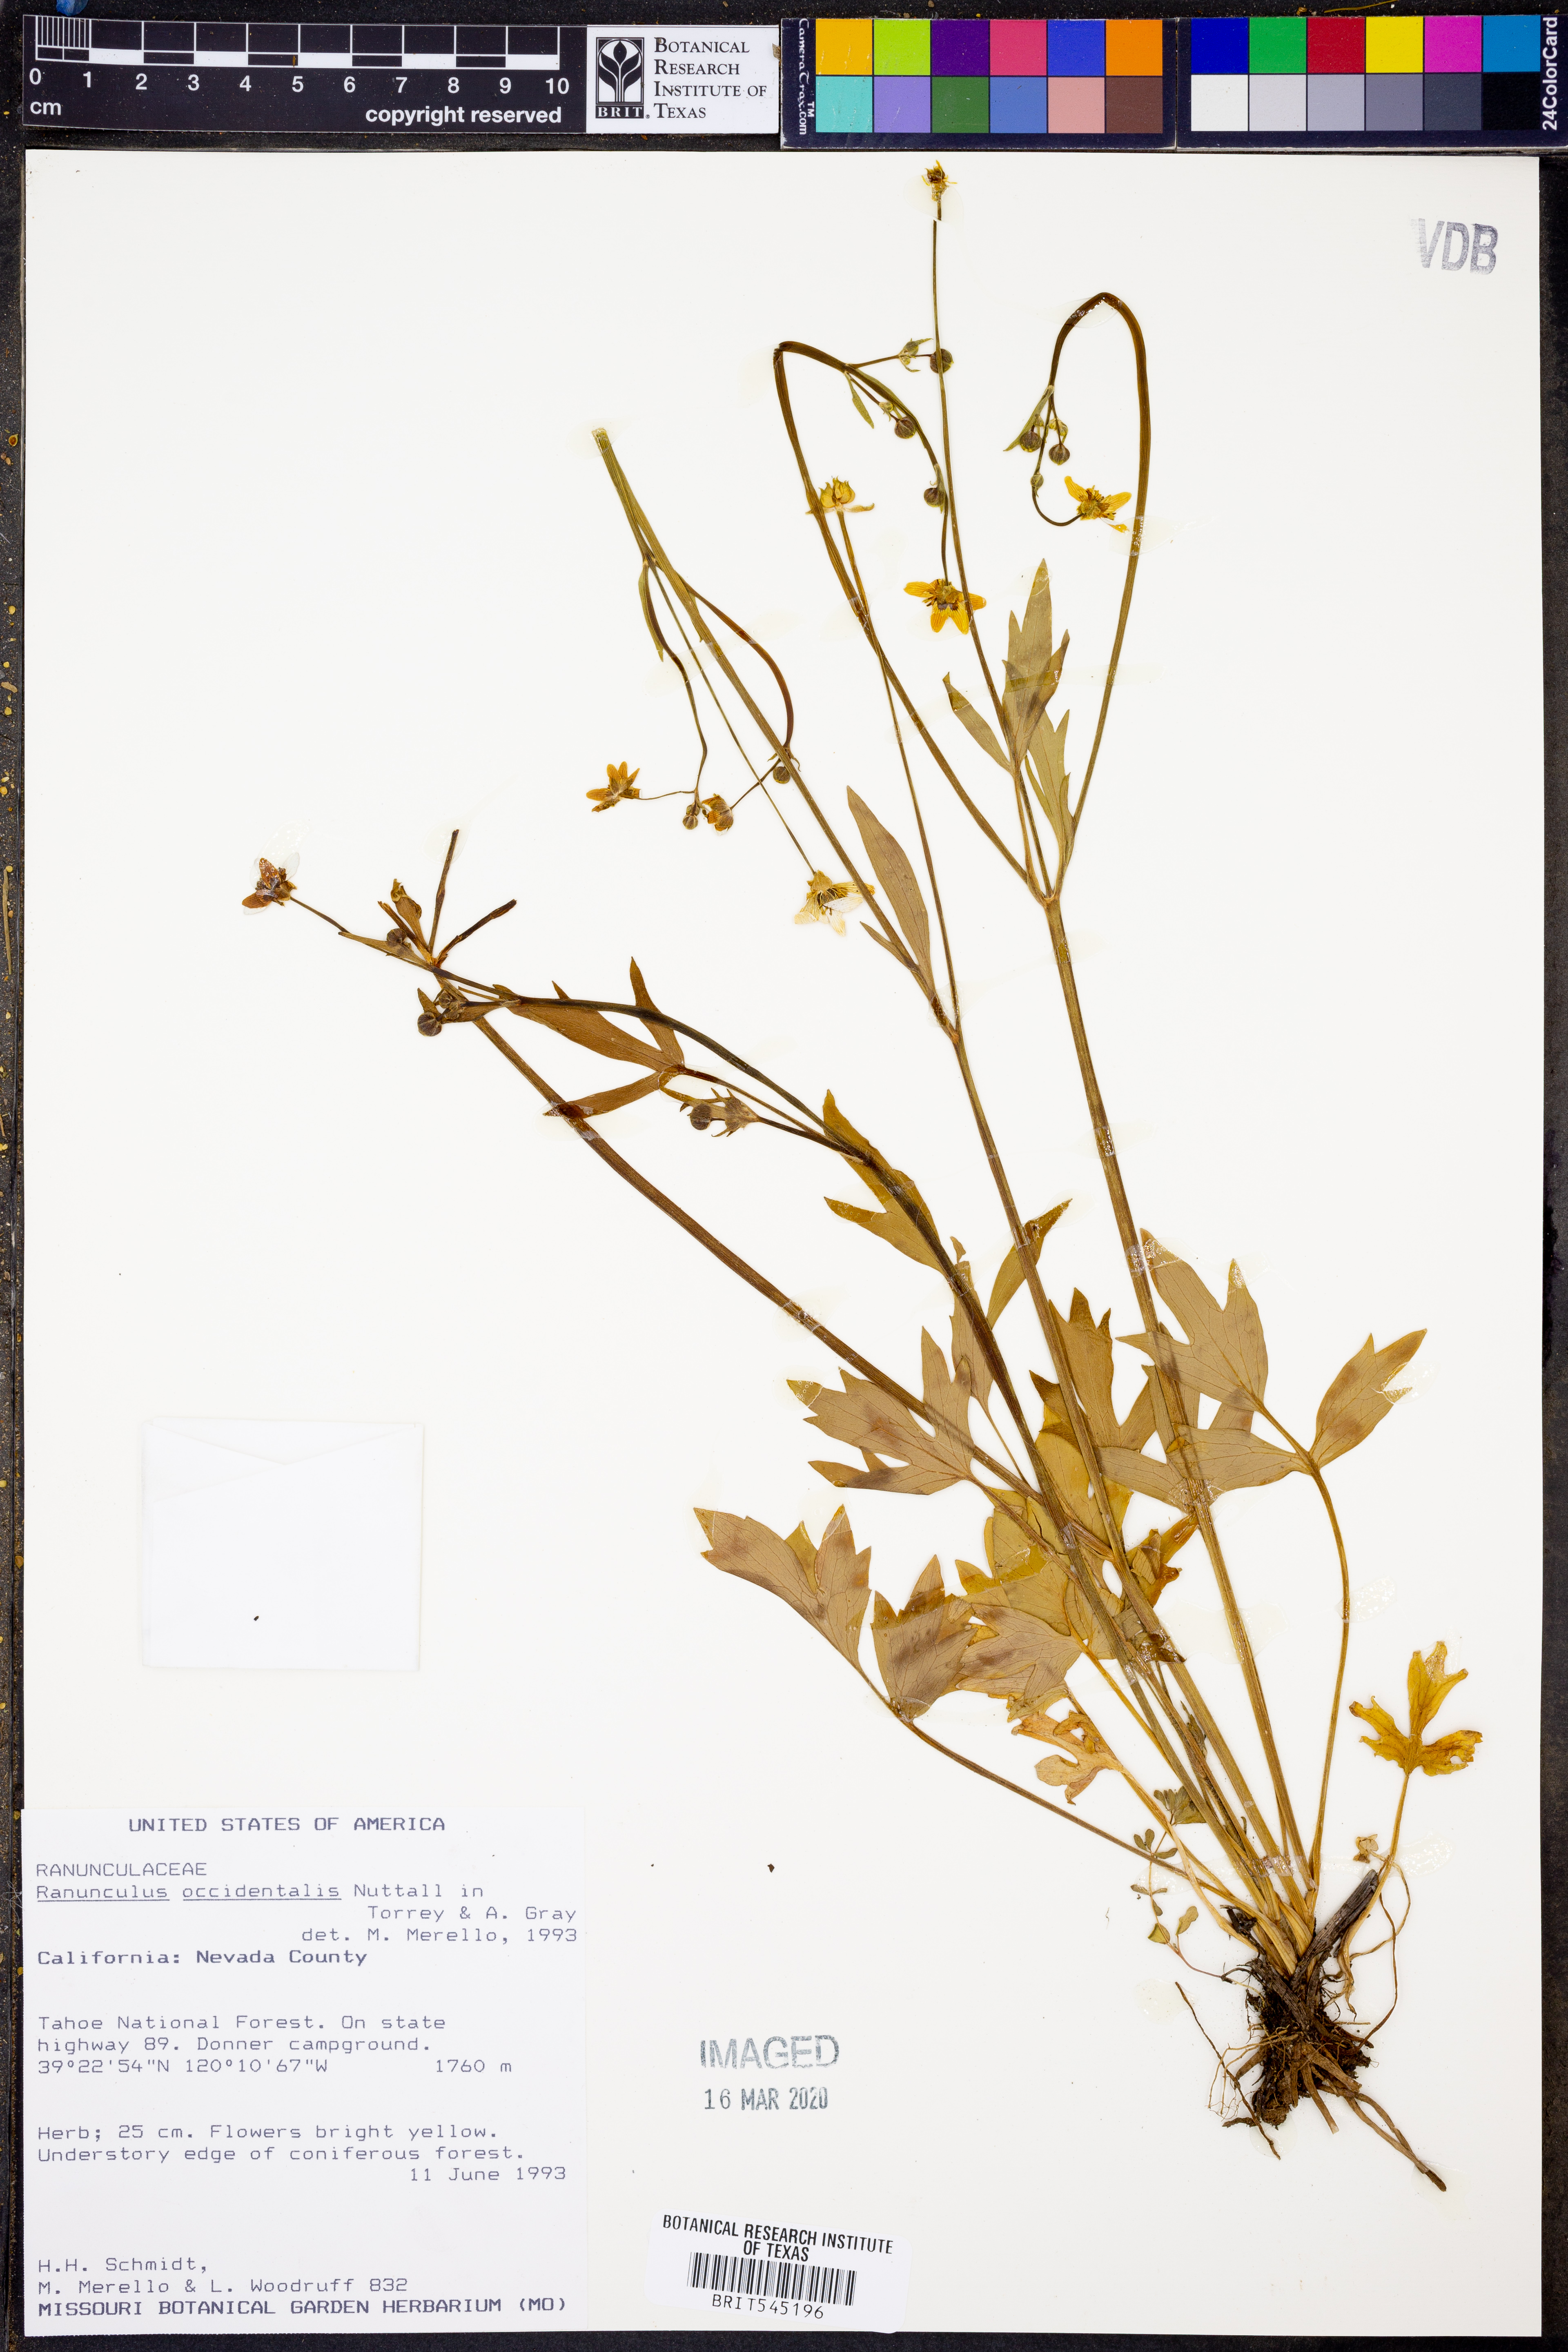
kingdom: Plantae
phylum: Tracheophyta
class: Magnoliopsida
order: Ranunculales
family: Ranunculaceae
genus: Ranunculus
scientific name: Ranunculus occidentalis
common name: Western buttercup
